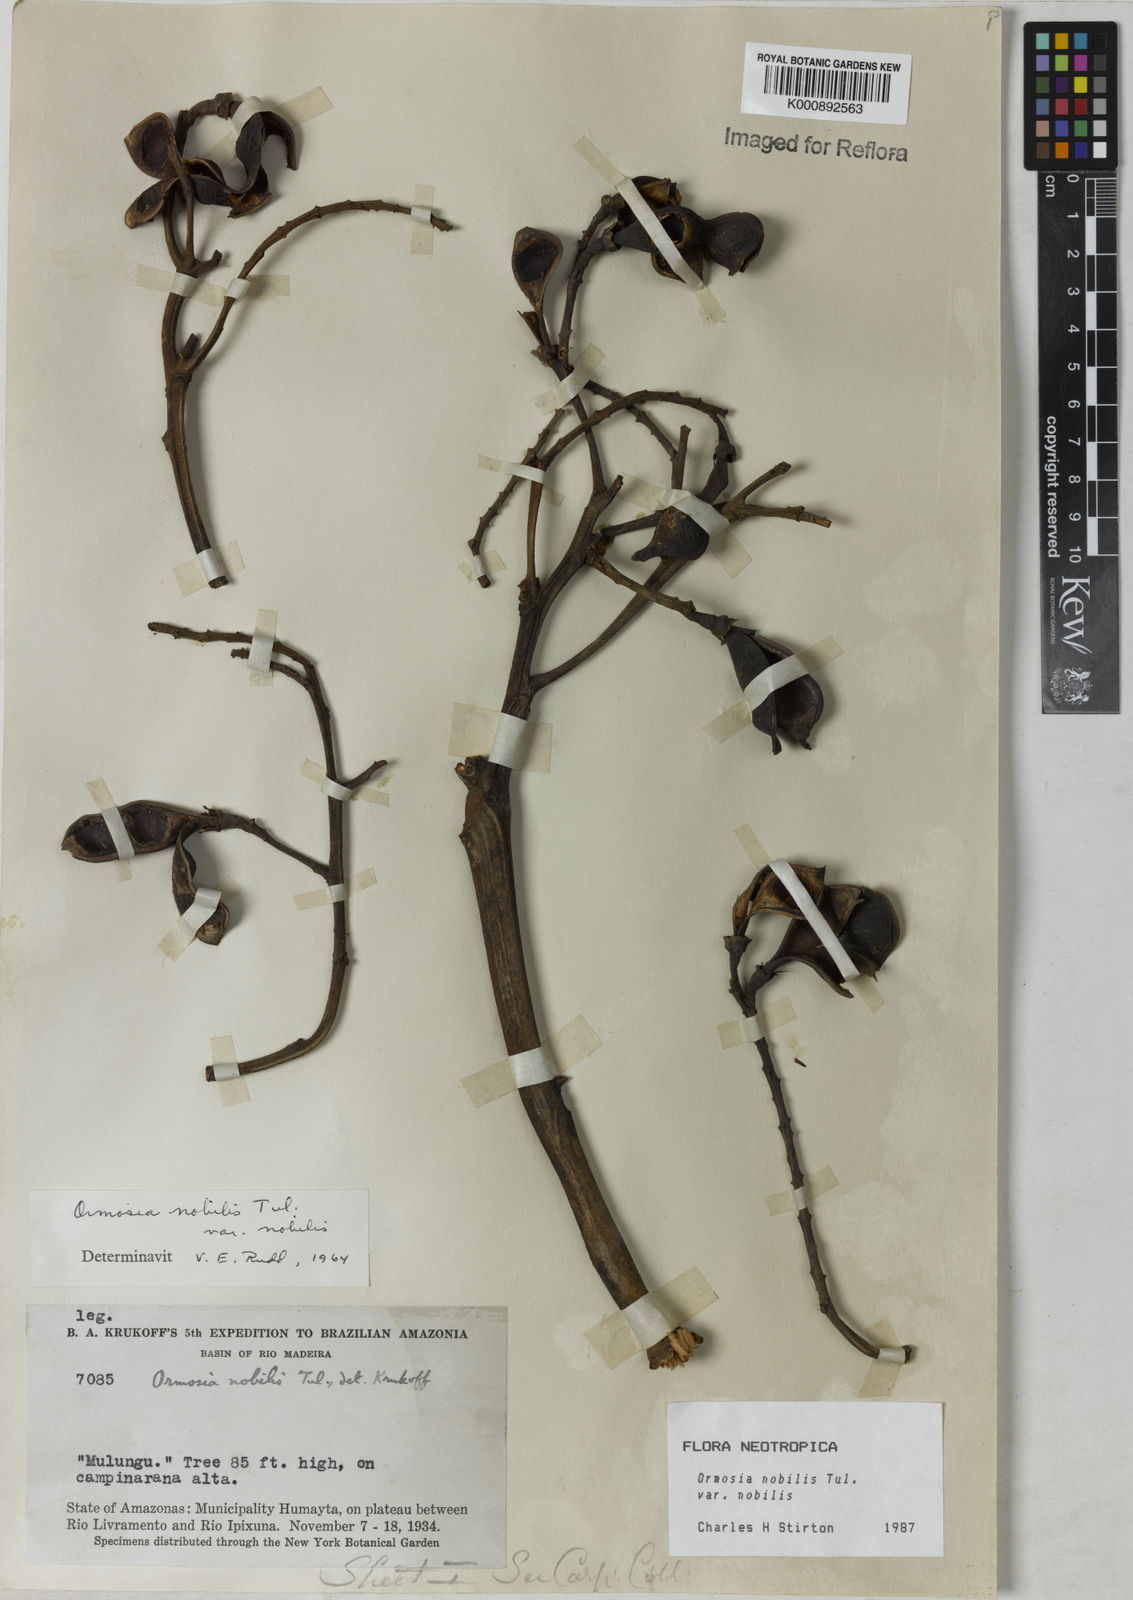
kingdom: Plantae
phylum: Tracheophyta
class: Magnoliopsida
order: Fabales
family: Fabaceae
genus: Ormosia
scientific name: Ormosia nobilis
